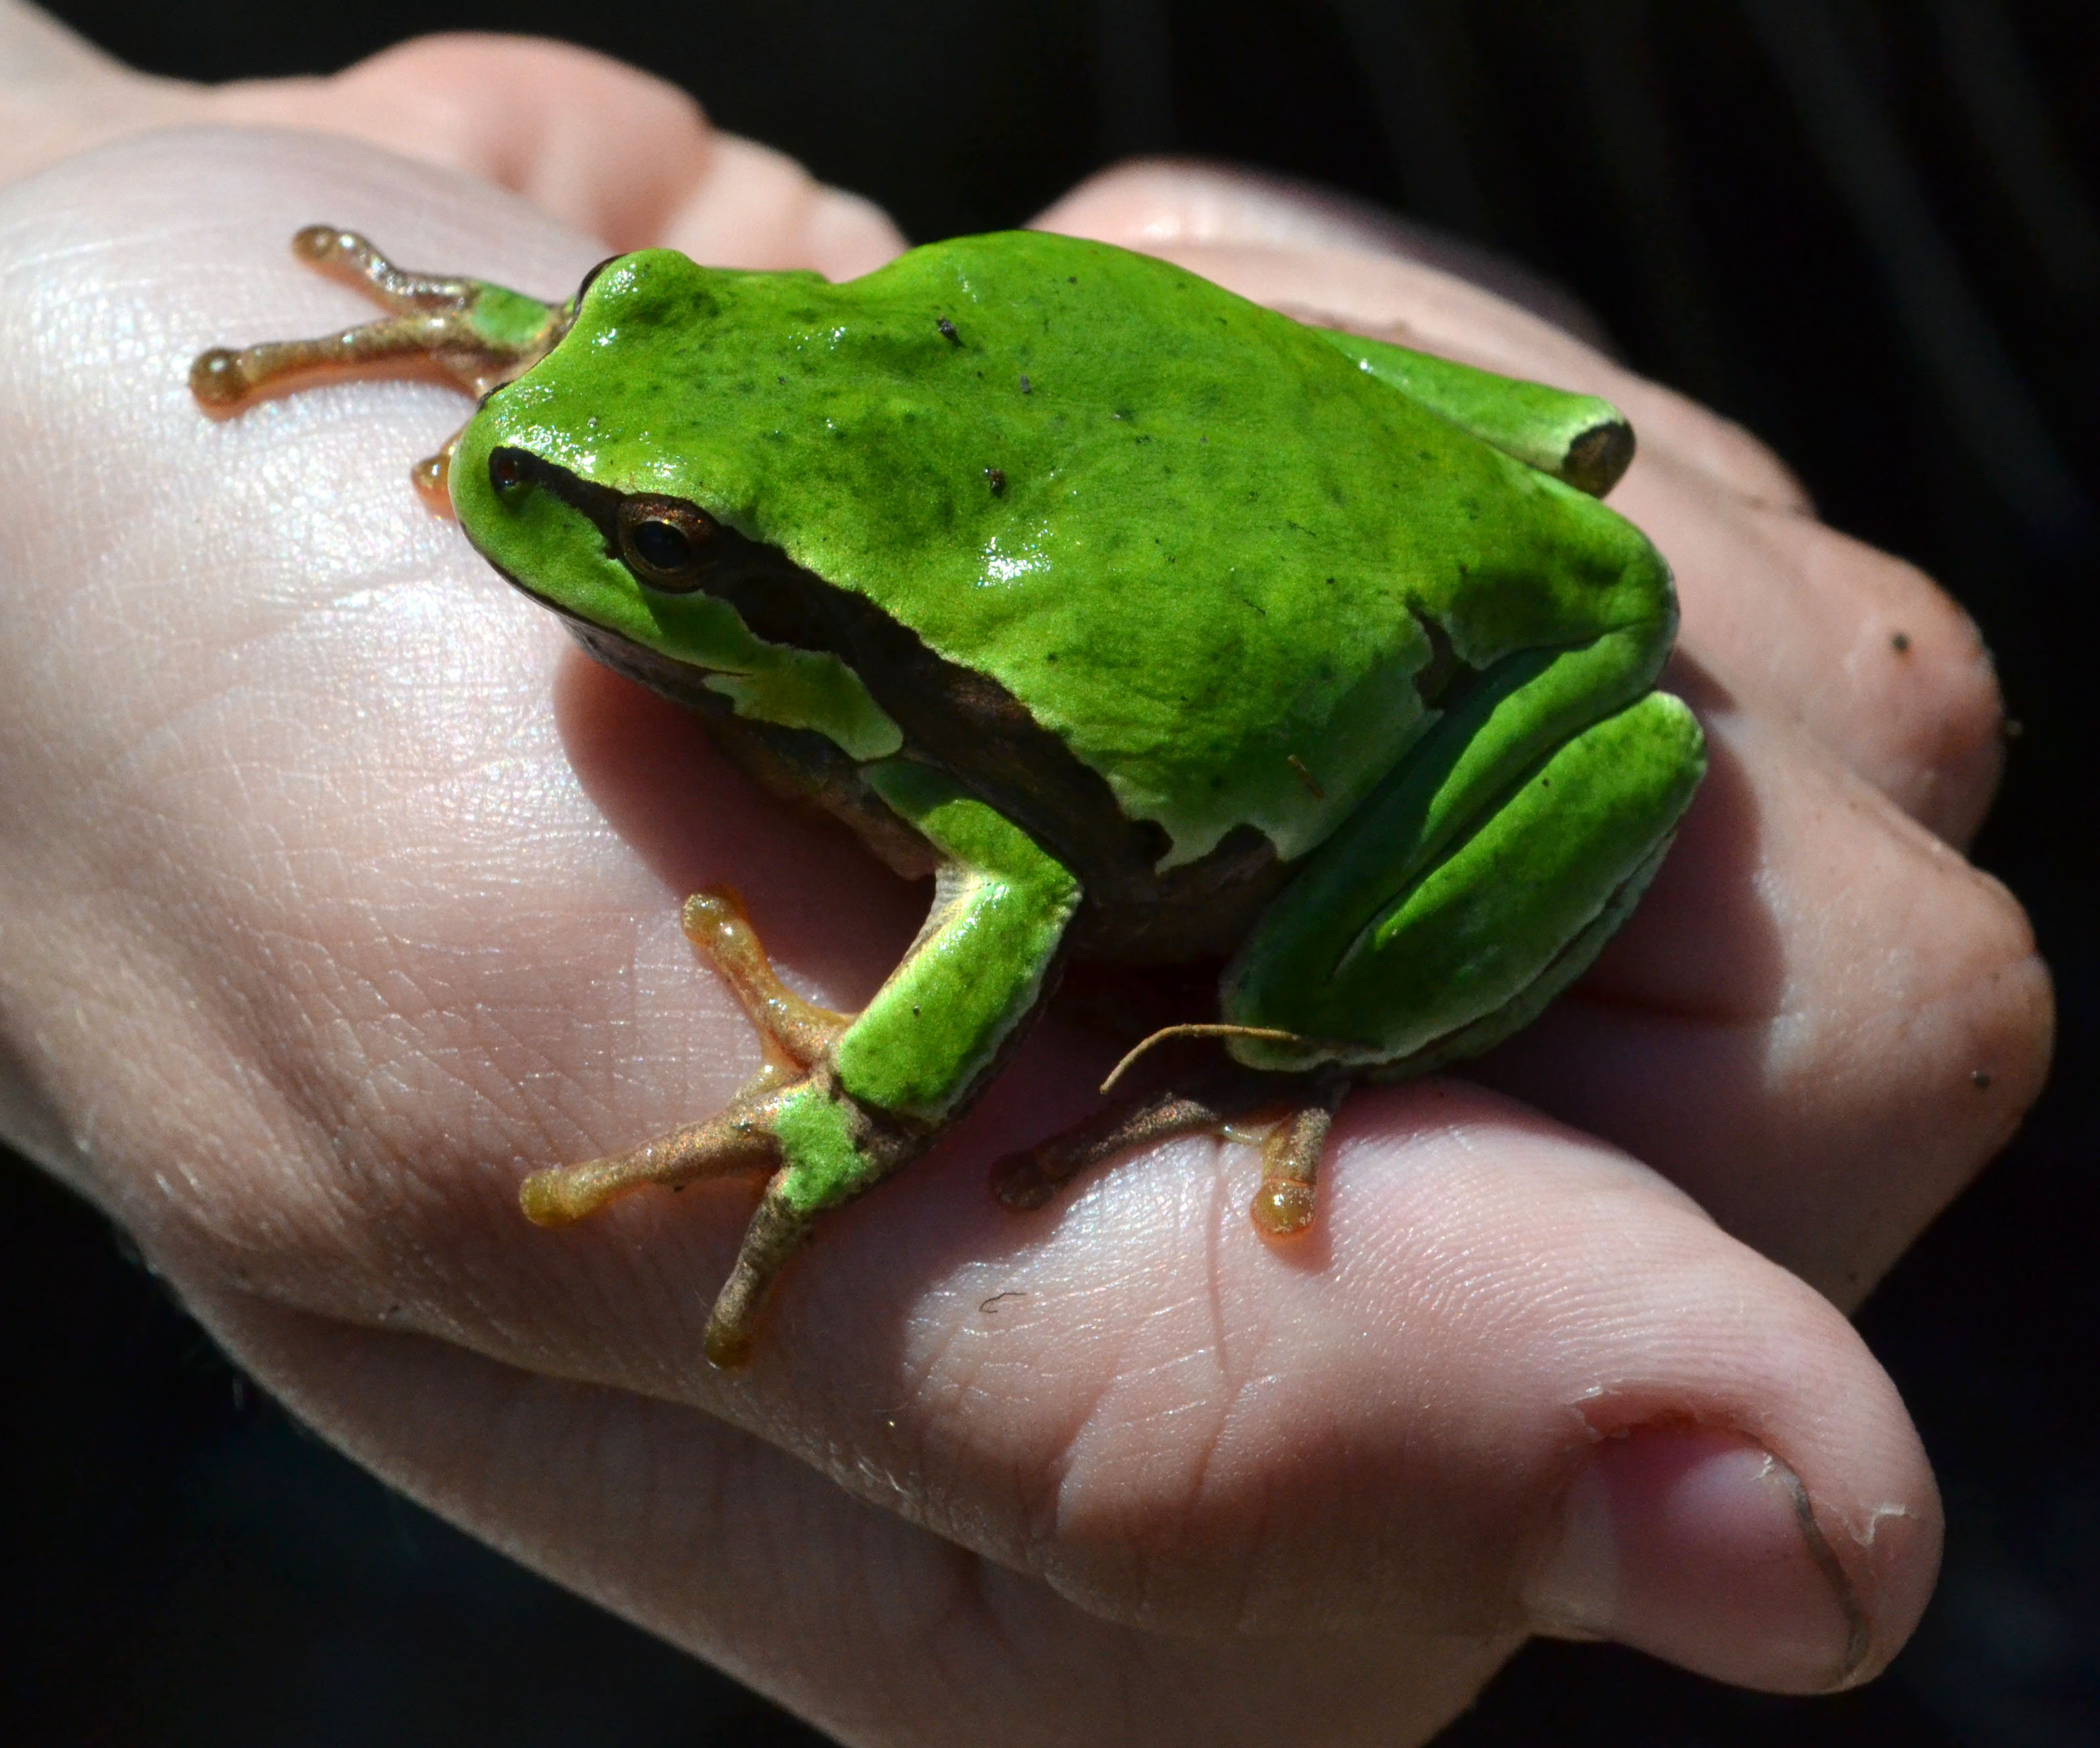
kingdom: Animalia
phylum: Chordata
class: Amphibia
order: Anura
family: Hylidae
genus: Hyla
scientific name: Hyla arborea
